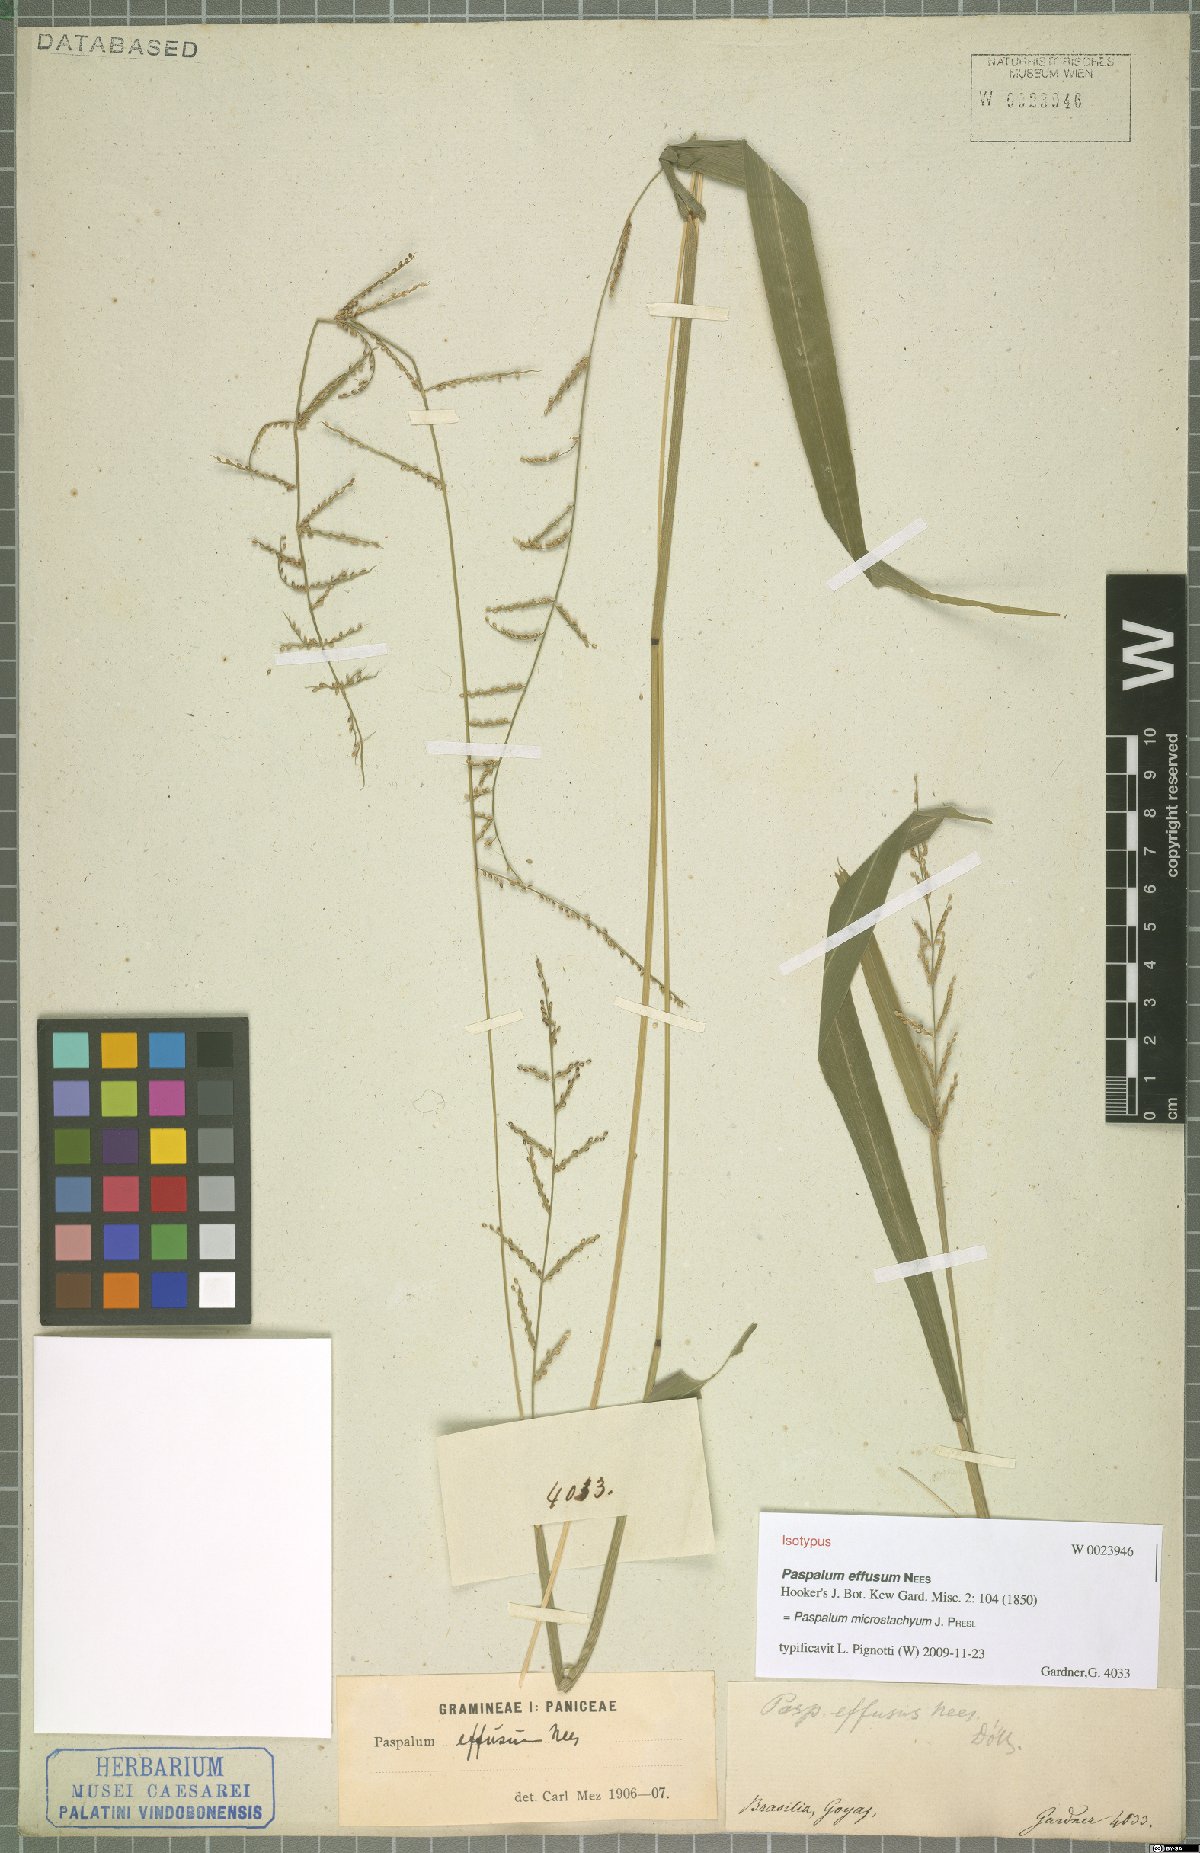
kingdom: Plantae
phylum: Tracheophyta
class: Liliopsida
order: Poales
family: Poaceae
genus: Paspalum
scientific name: Paspalum microstachyum
